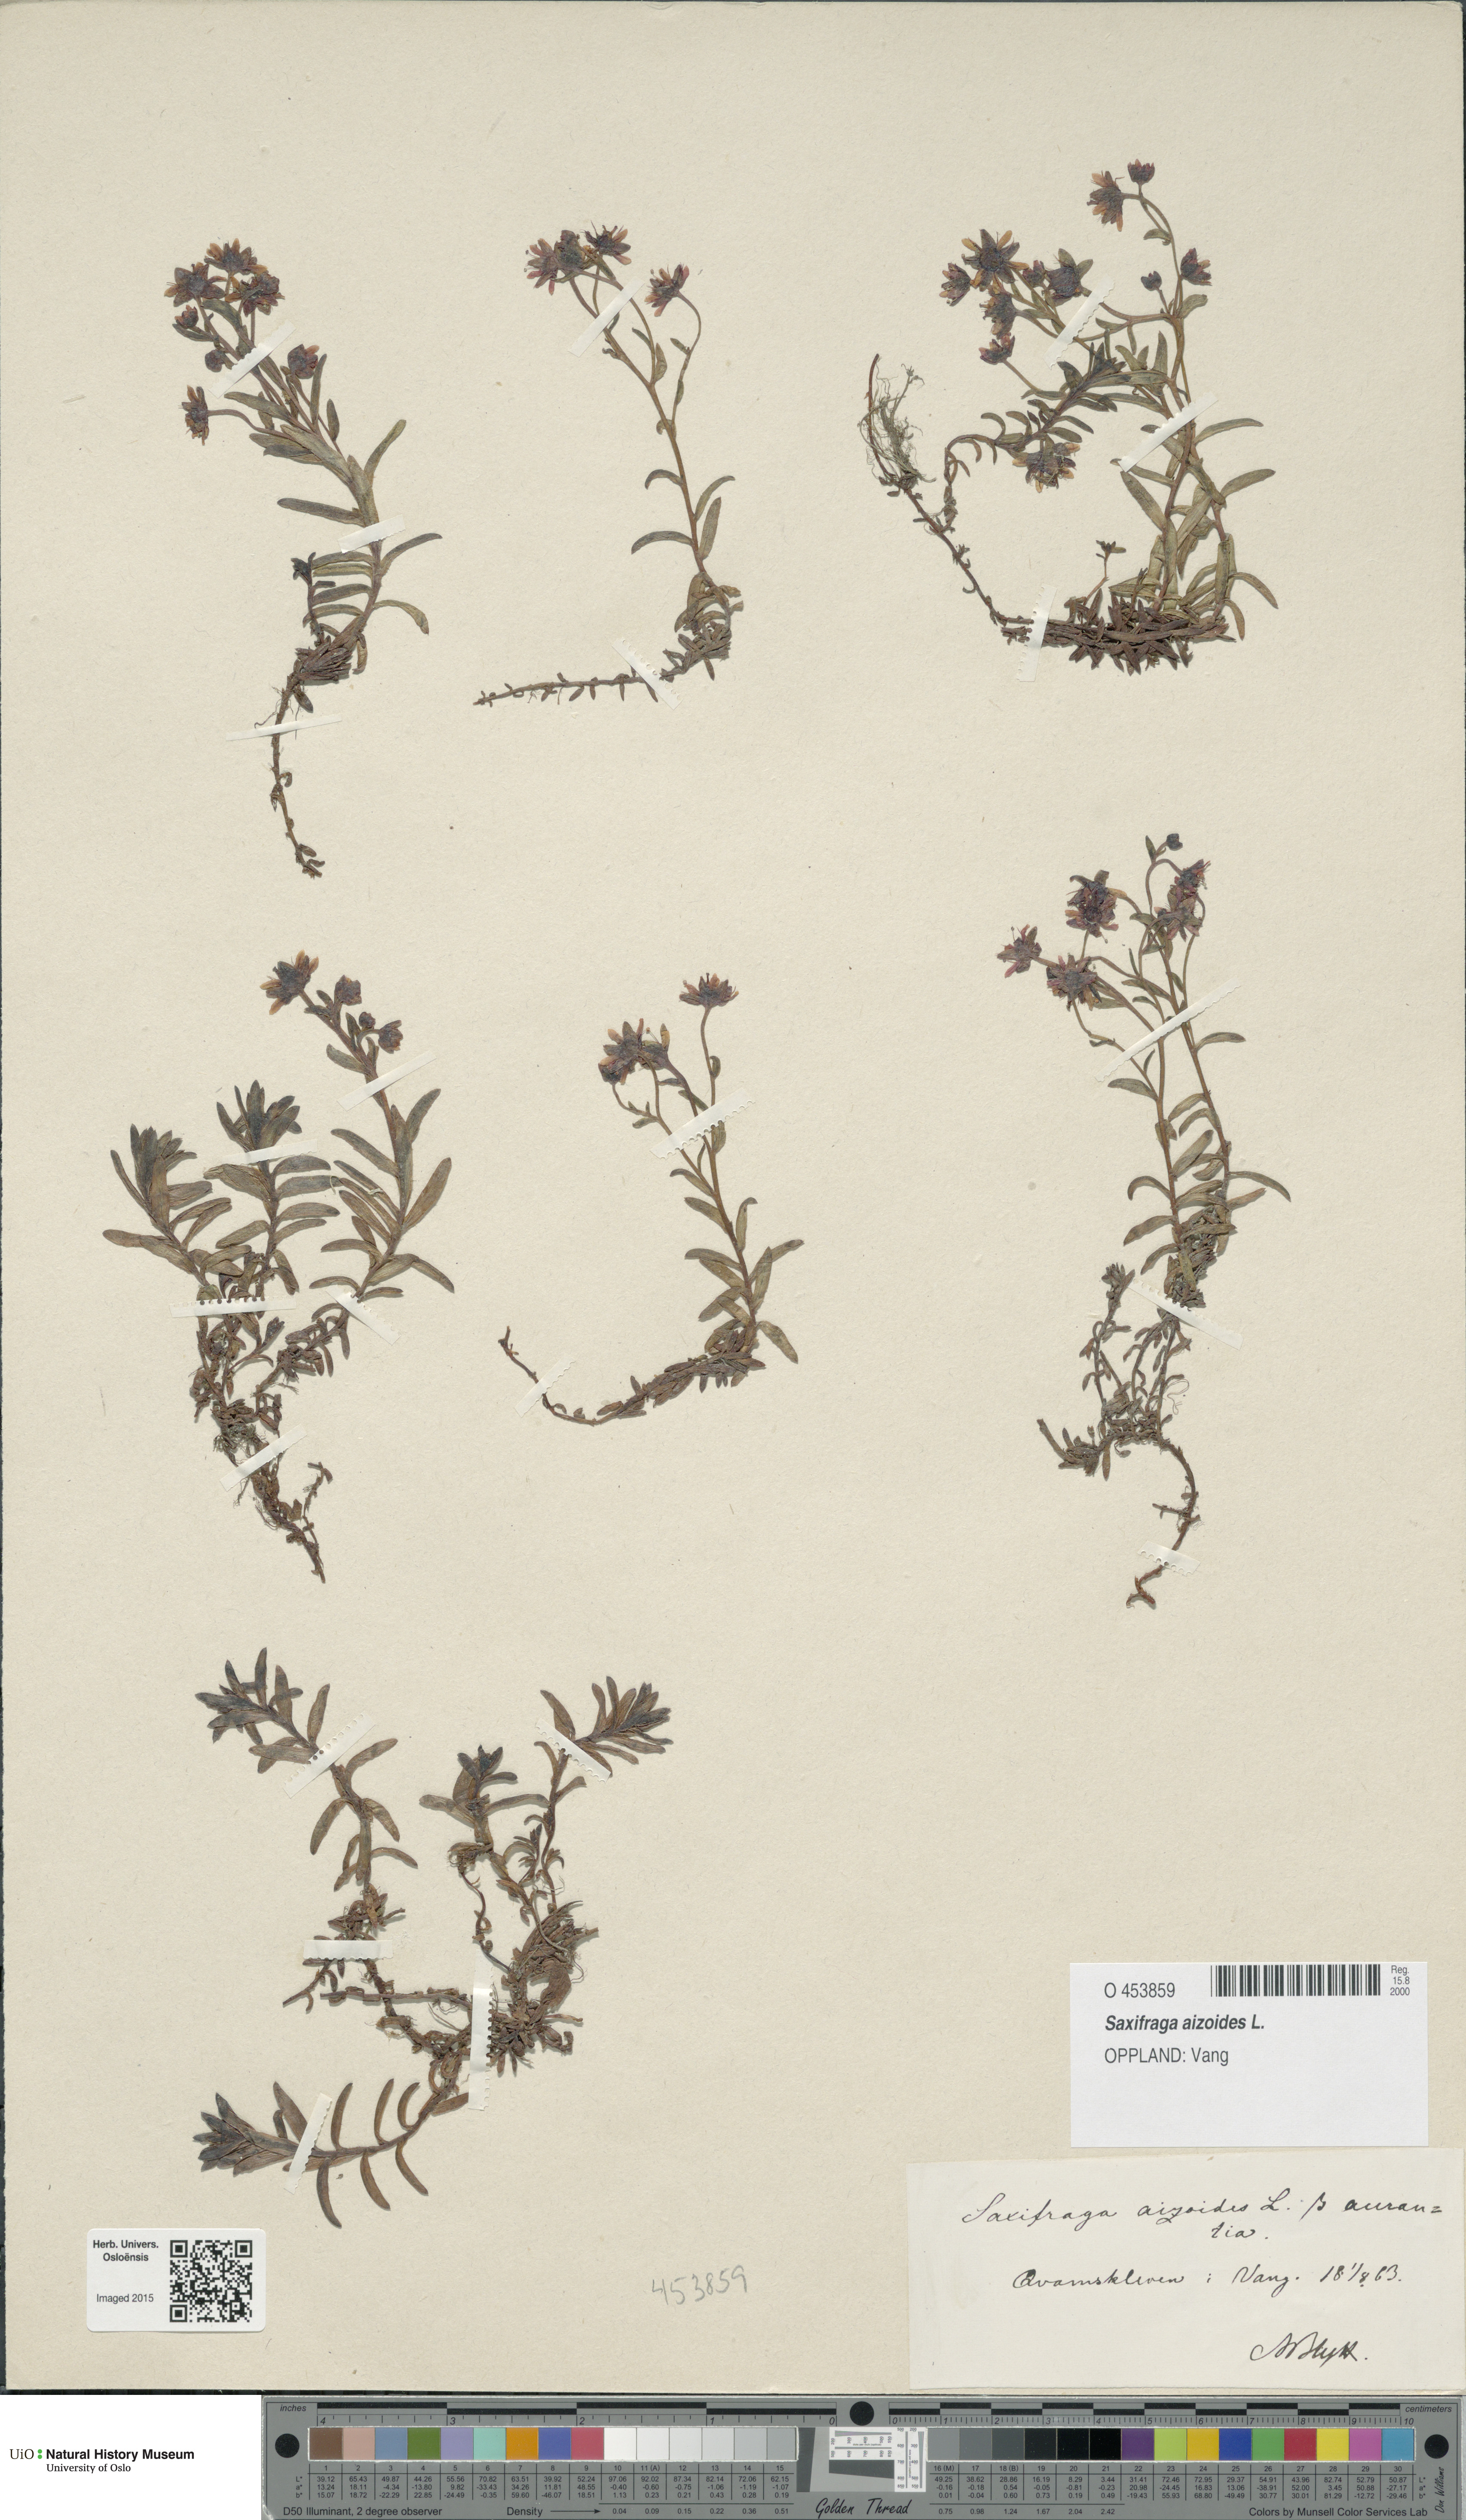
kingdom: Plantae
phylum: Tracheophyta
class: Magnoliopsida
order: Saxifragales
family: Saxifragaceae
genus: Saxifraga
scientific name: Saxifraga aizoides
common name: Yellow mountain saxifrage
